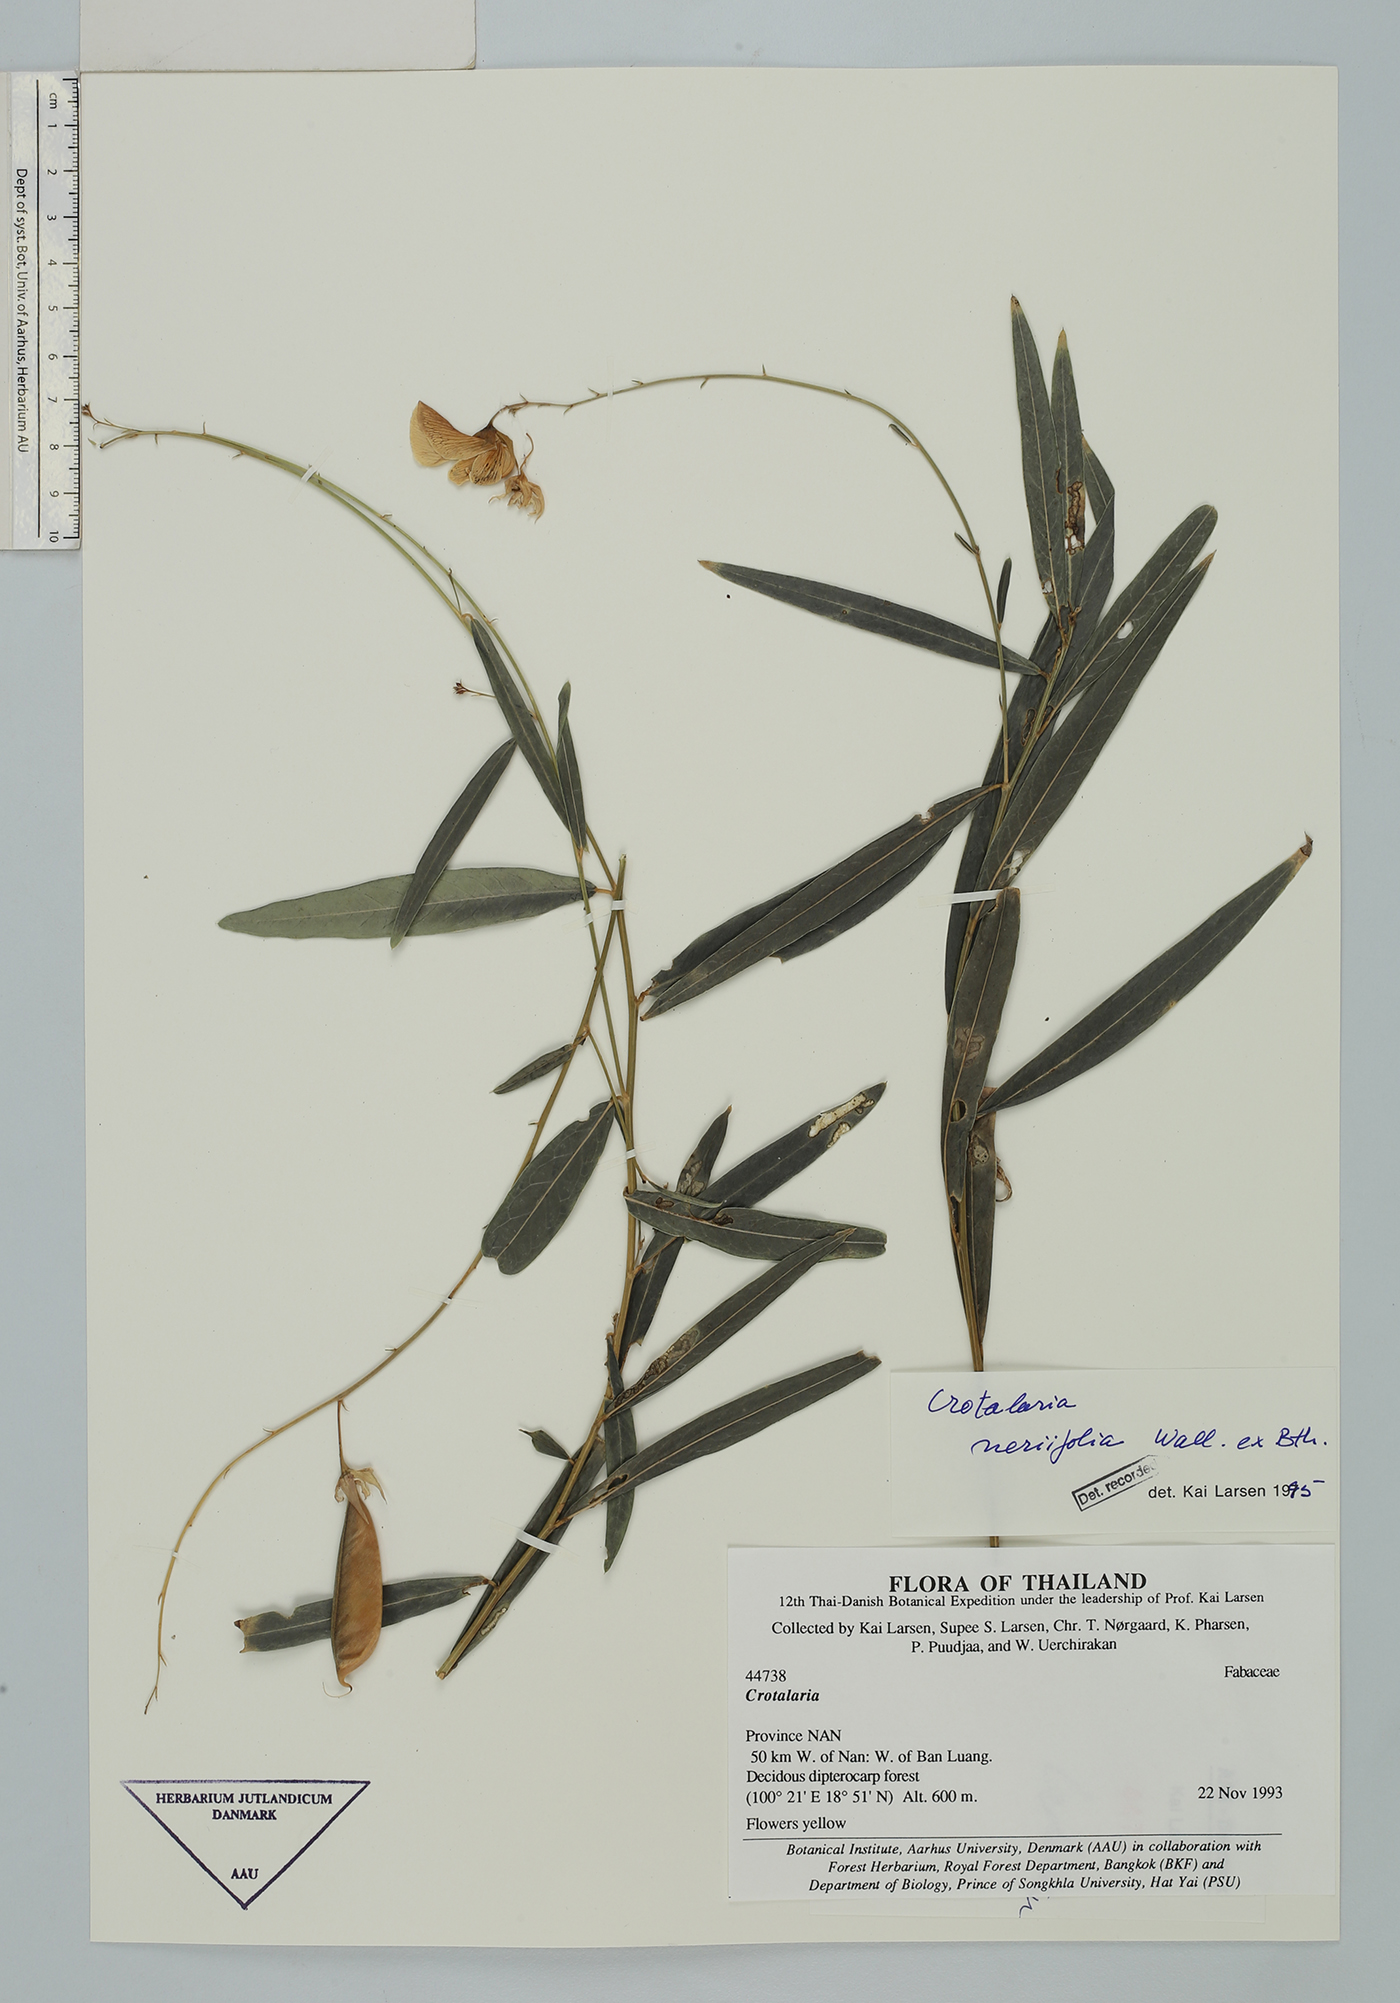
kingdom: Plantae
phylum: Tracheophyta
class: Magnoliopsida
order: Fabales
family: Fabaceae
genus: Crotalaria
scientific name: Crotalaria neriifolia
